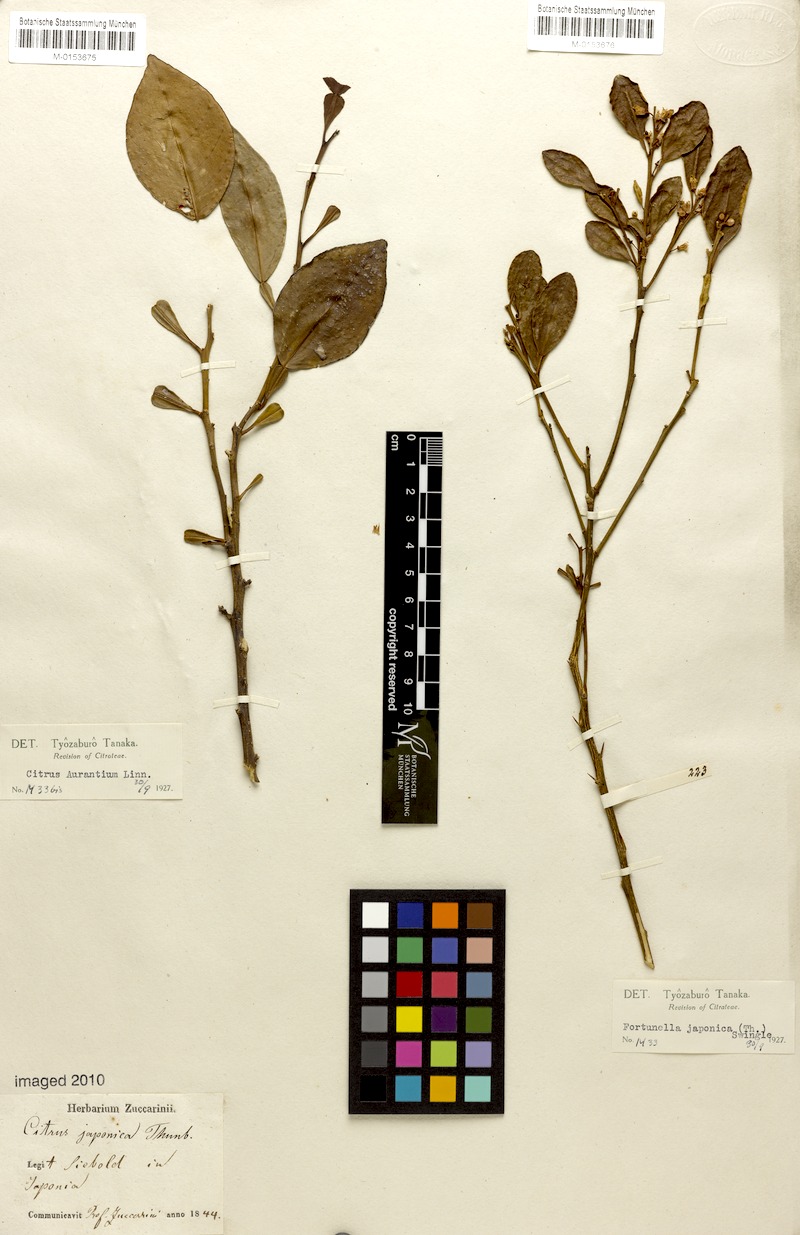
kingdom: Plantae
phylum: Tracheophyta
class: Magnoliopsida
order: Sapindales
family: Rutaceae
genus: Citrus
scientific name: Citrus japonica
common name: Kumquat
